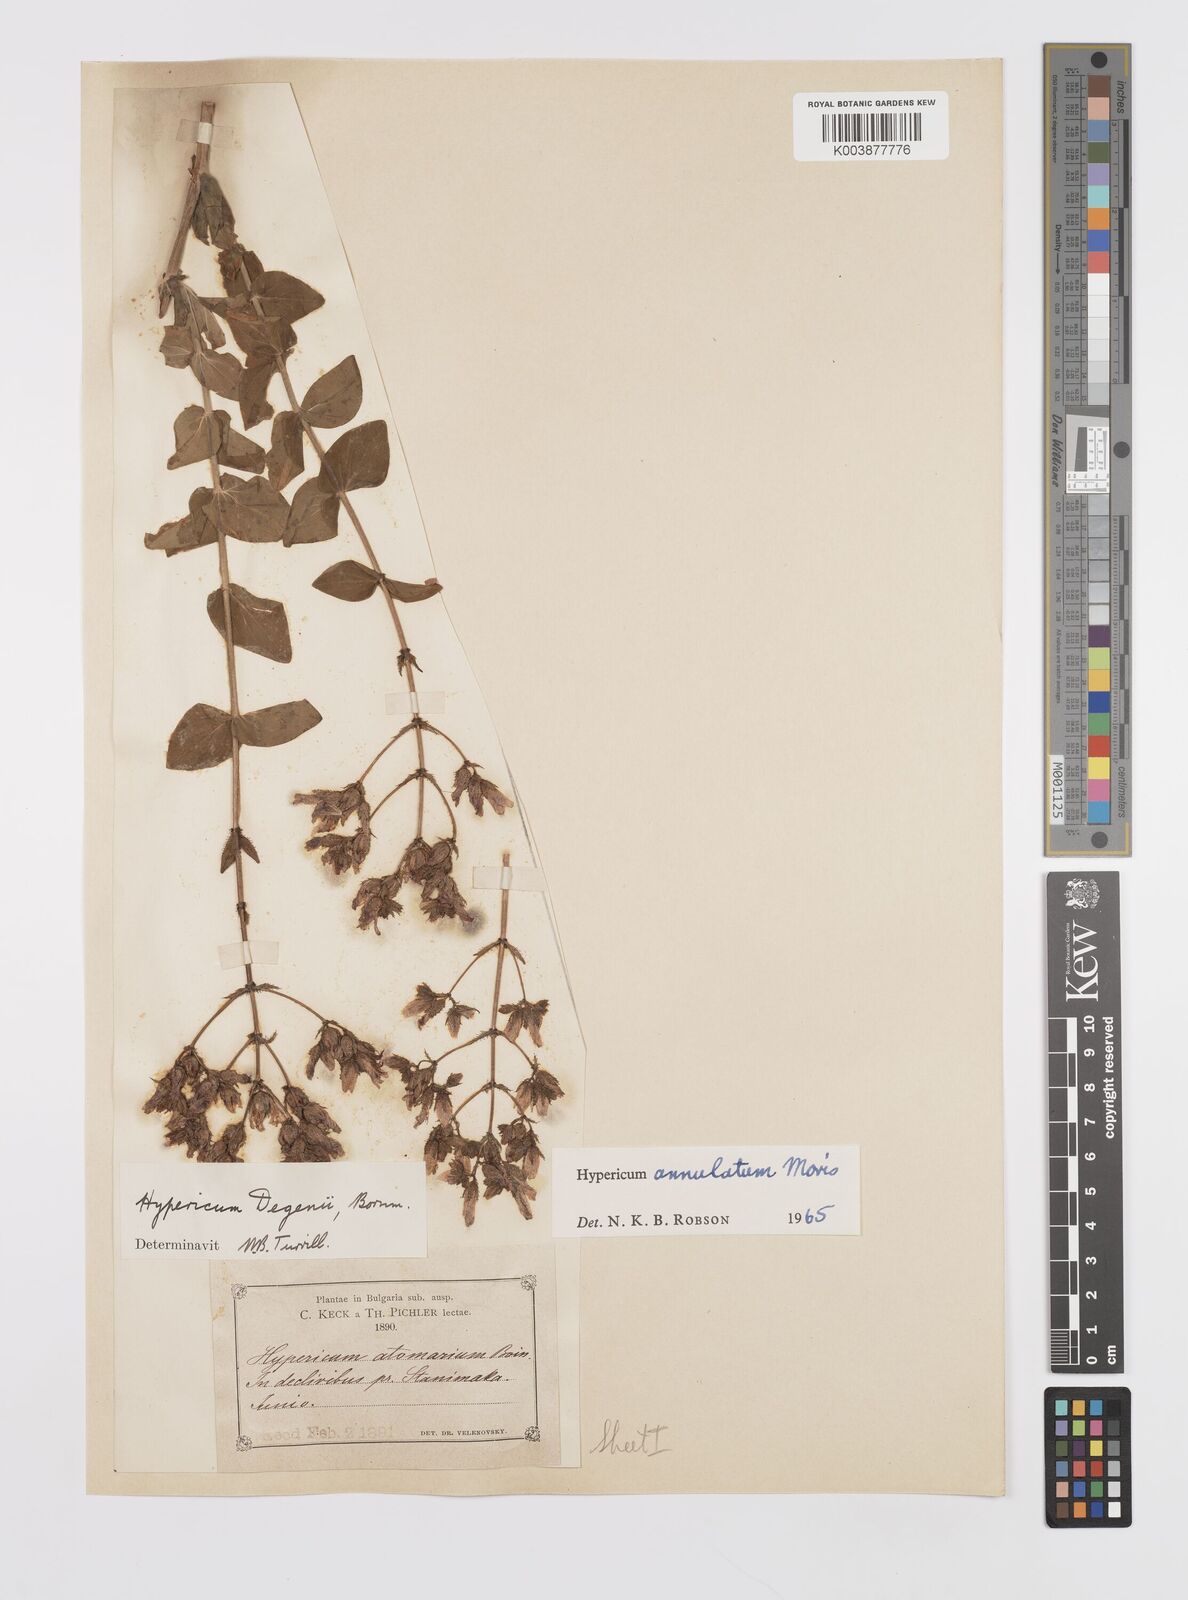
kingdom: Plantae
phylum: Tracheophyta
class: Magnoliopsida
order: Malpighiales
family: Hypericaceae
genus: Hypericum
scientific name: Hypericum annulatum
